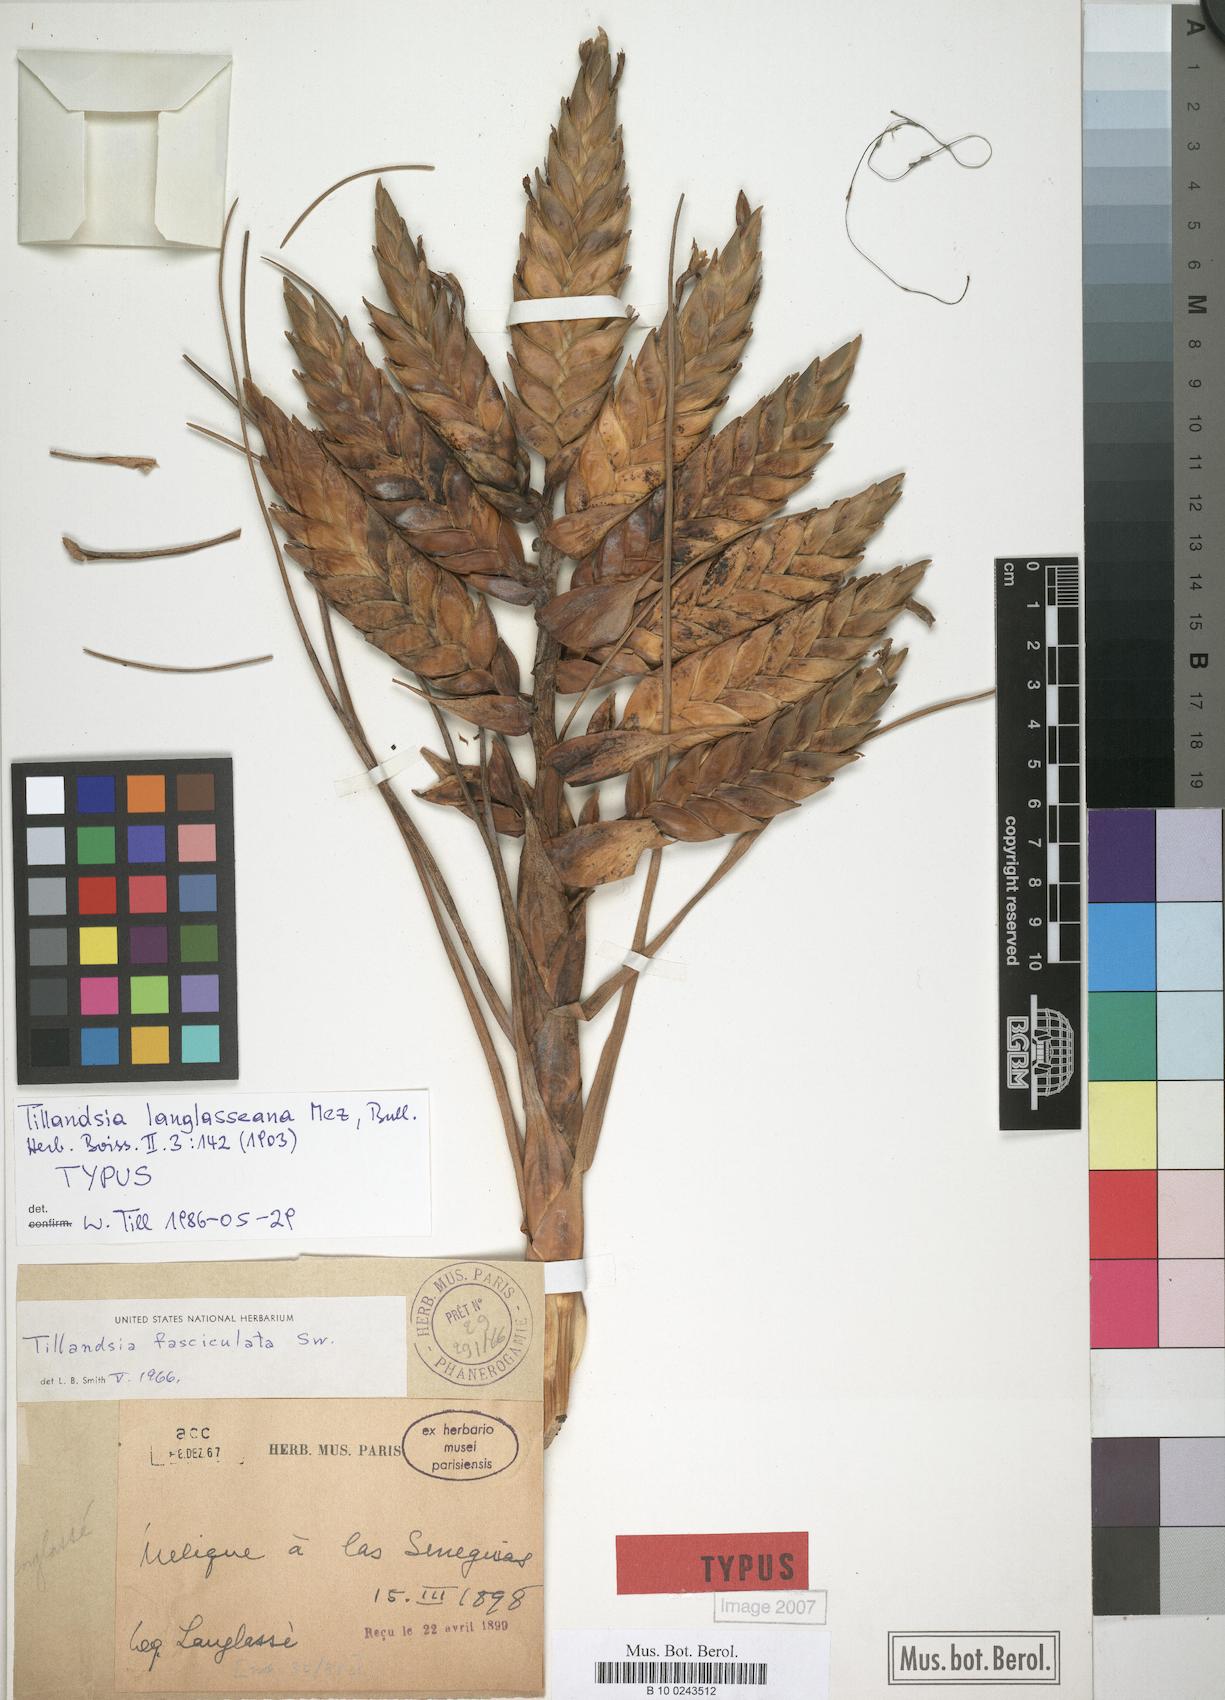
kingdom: Plantae
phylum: Tracheophyta
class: Liliopsida
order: Poales
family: Bromeliaceae
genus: Tillandsia
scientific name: Tillandsia langlasseana
